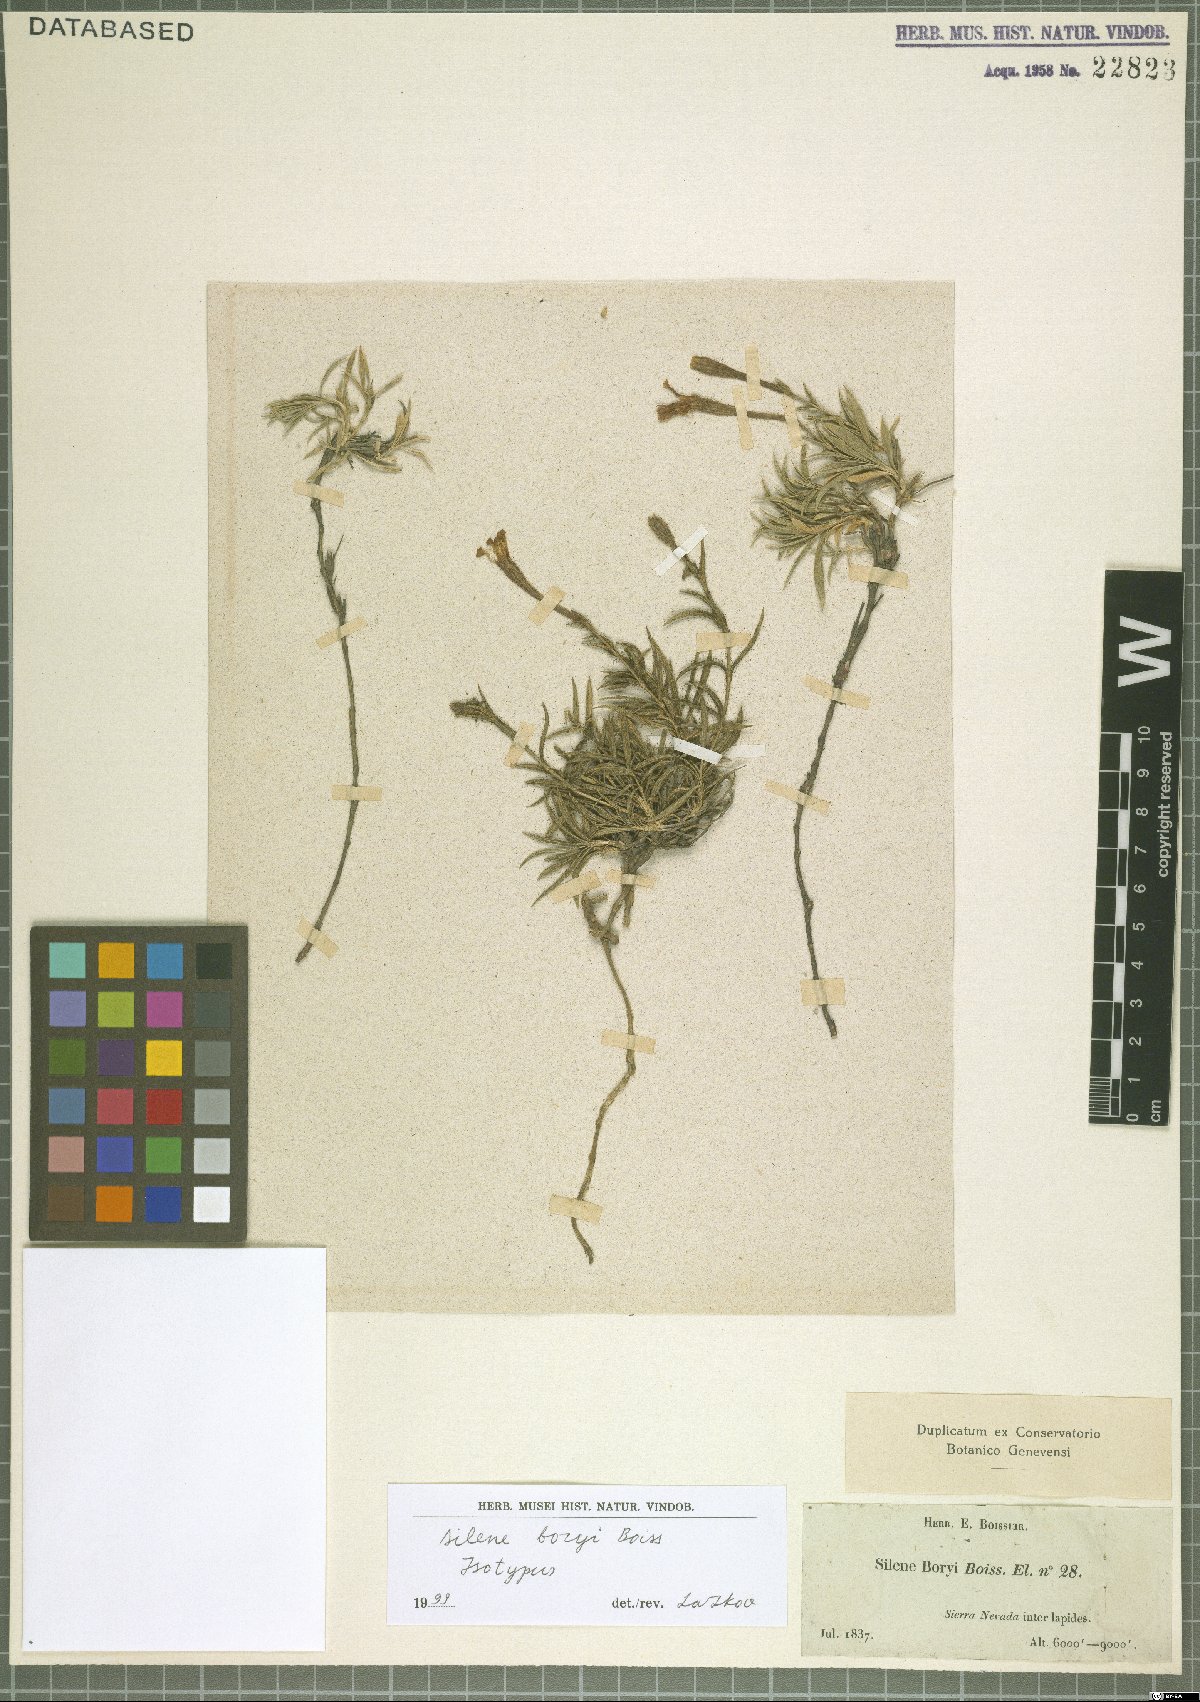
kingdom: Plantae
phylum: Tracheophyta
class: Magnoliopsida
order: Caryophyllales
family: Caryophyllaceae
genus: Silene
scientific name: Silene boryi
